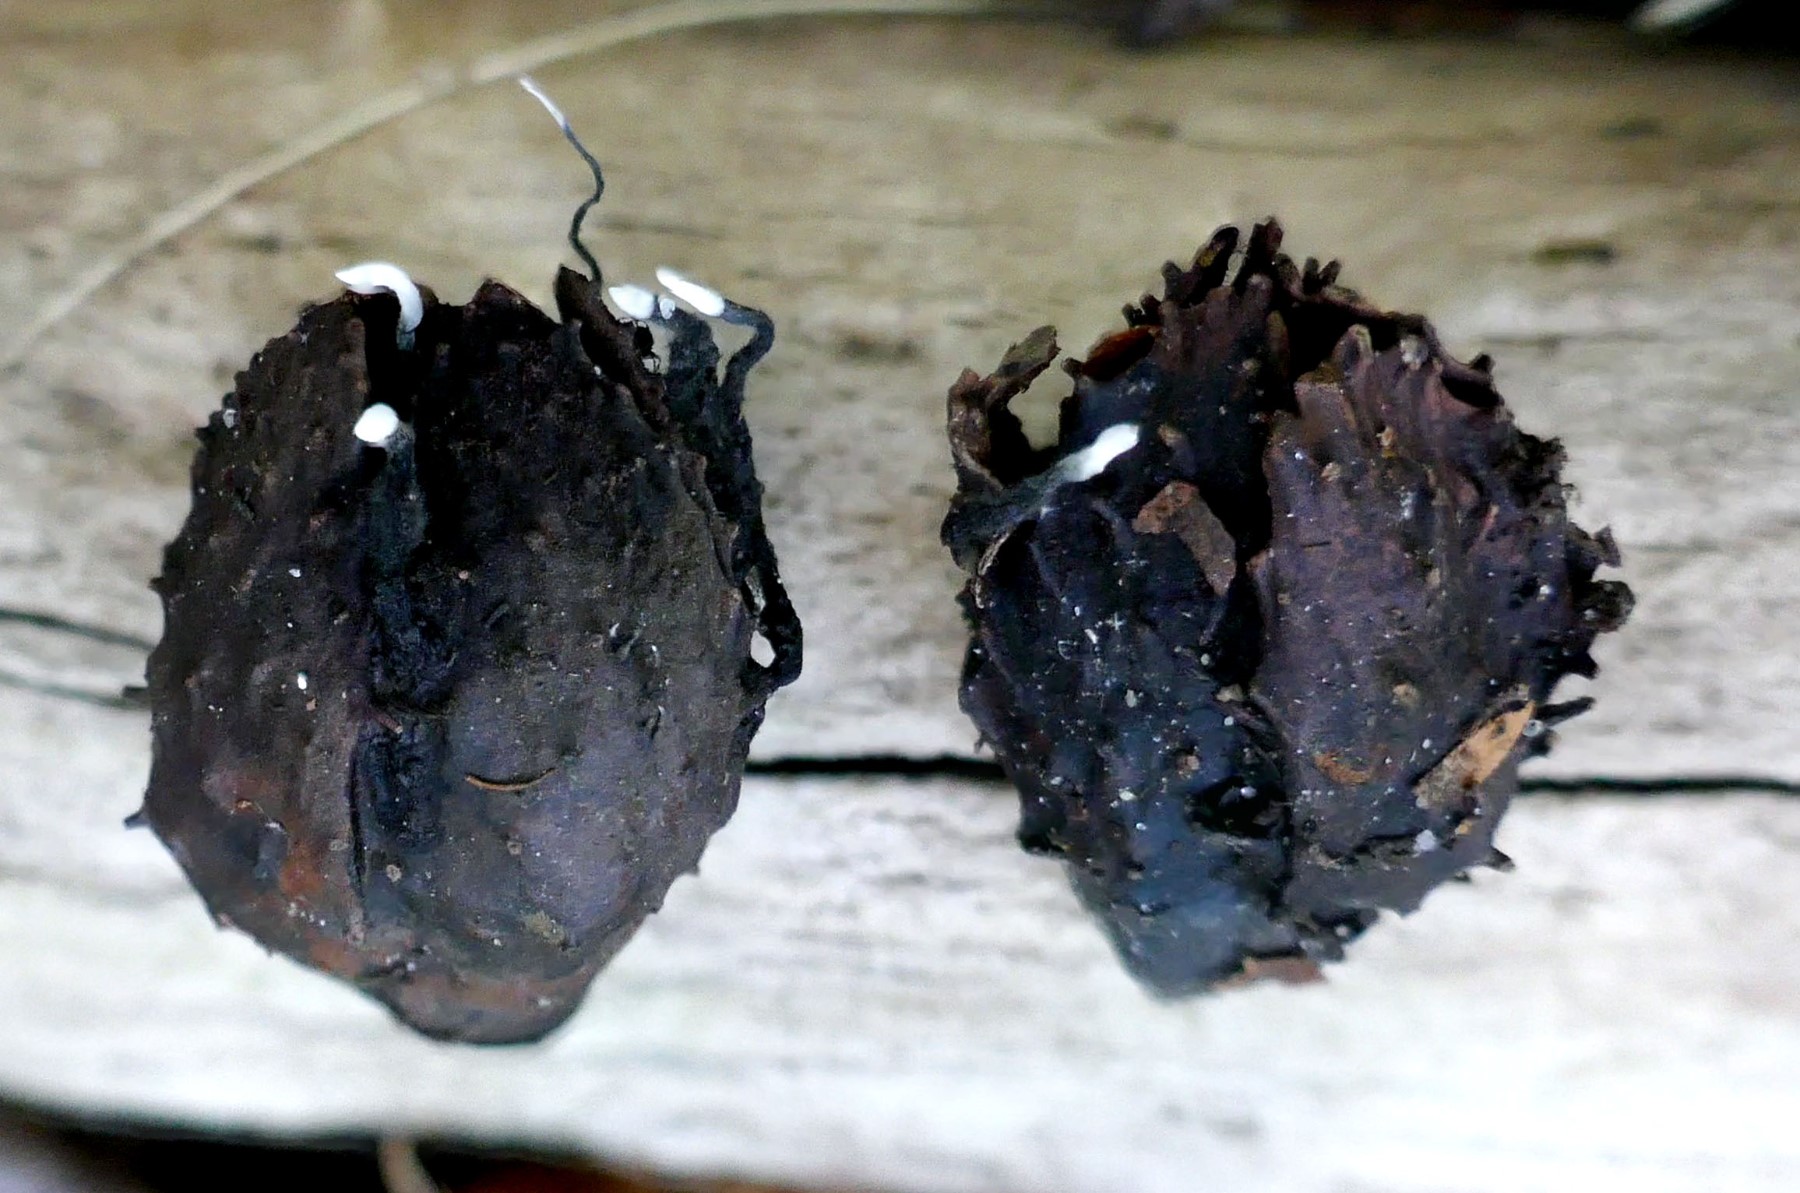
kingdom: Fungi
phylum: Ascomycota
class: Sordariomycetes
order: Xylariales
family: Xylariaceae
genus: Xylaria
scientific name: Xylaria carpophila
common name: bogskål-stødsvamp
